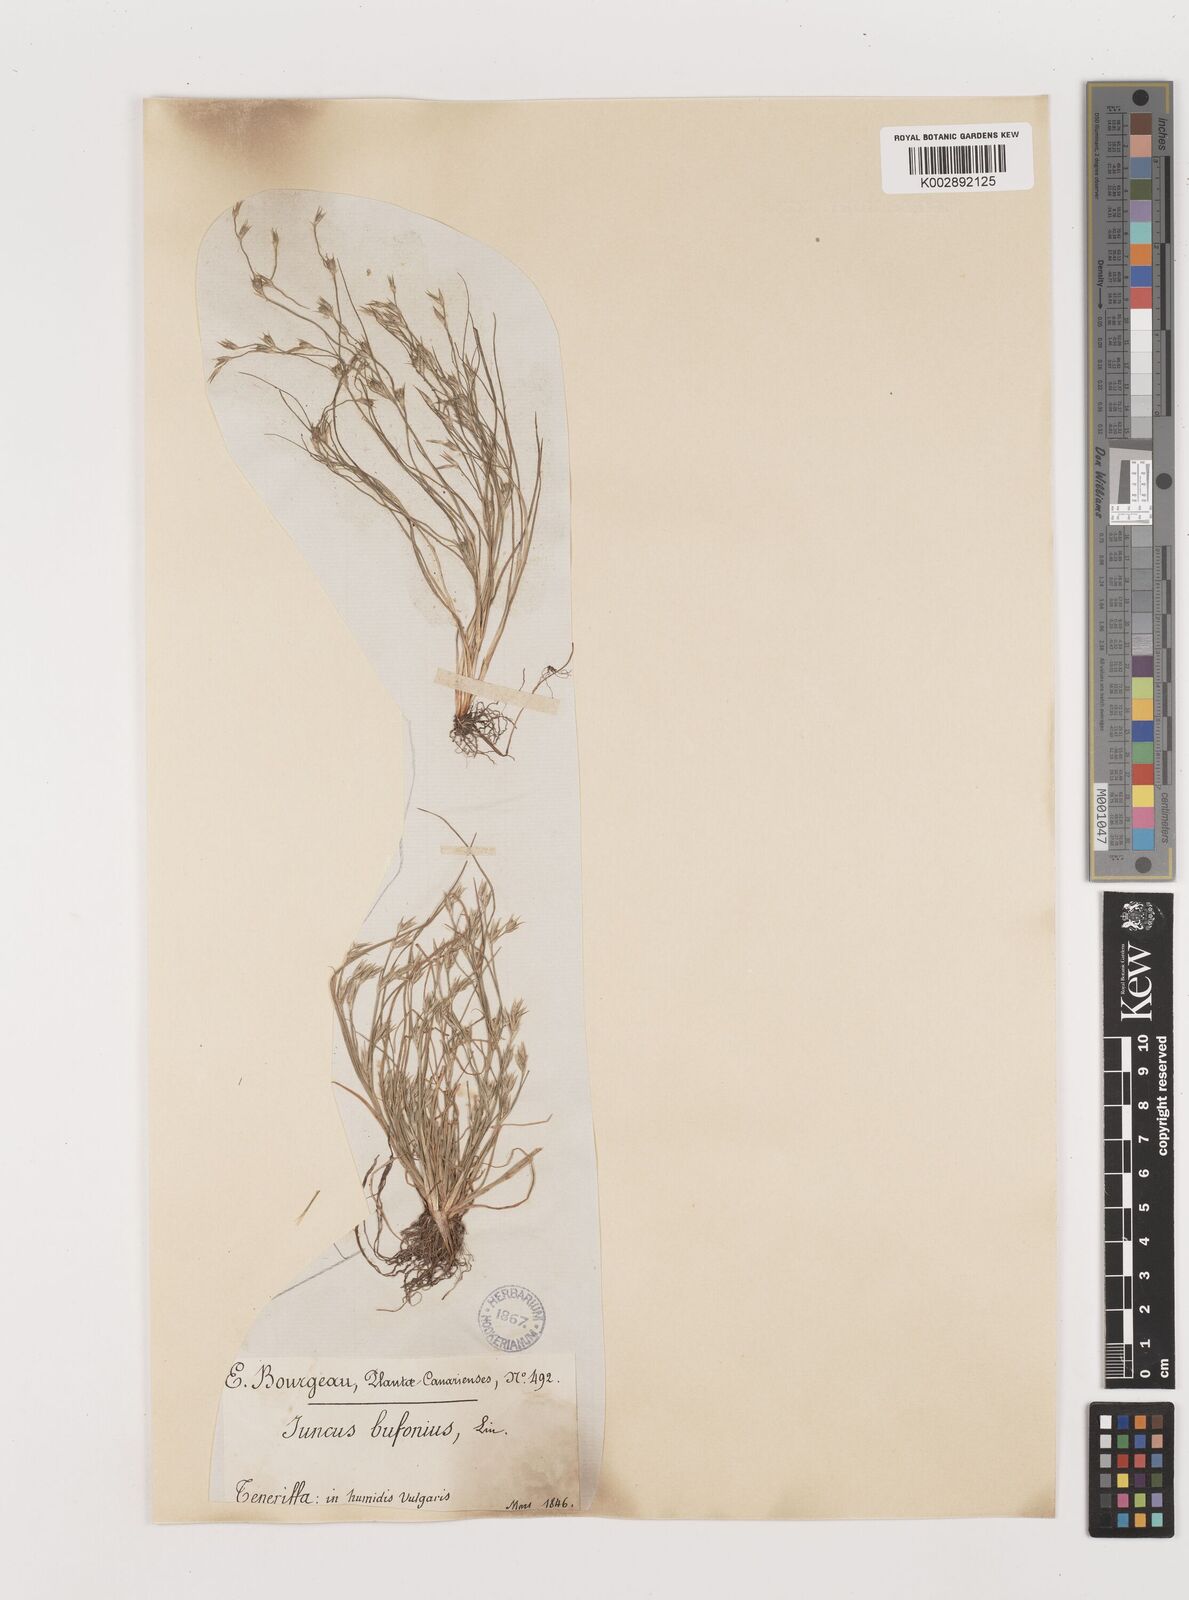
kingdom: Plantae
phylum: Tracheophyta
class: Liliopsida
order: Poales
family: Juncaceae
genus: Juncus
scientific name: Juncus bufonius
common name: Toad rush
